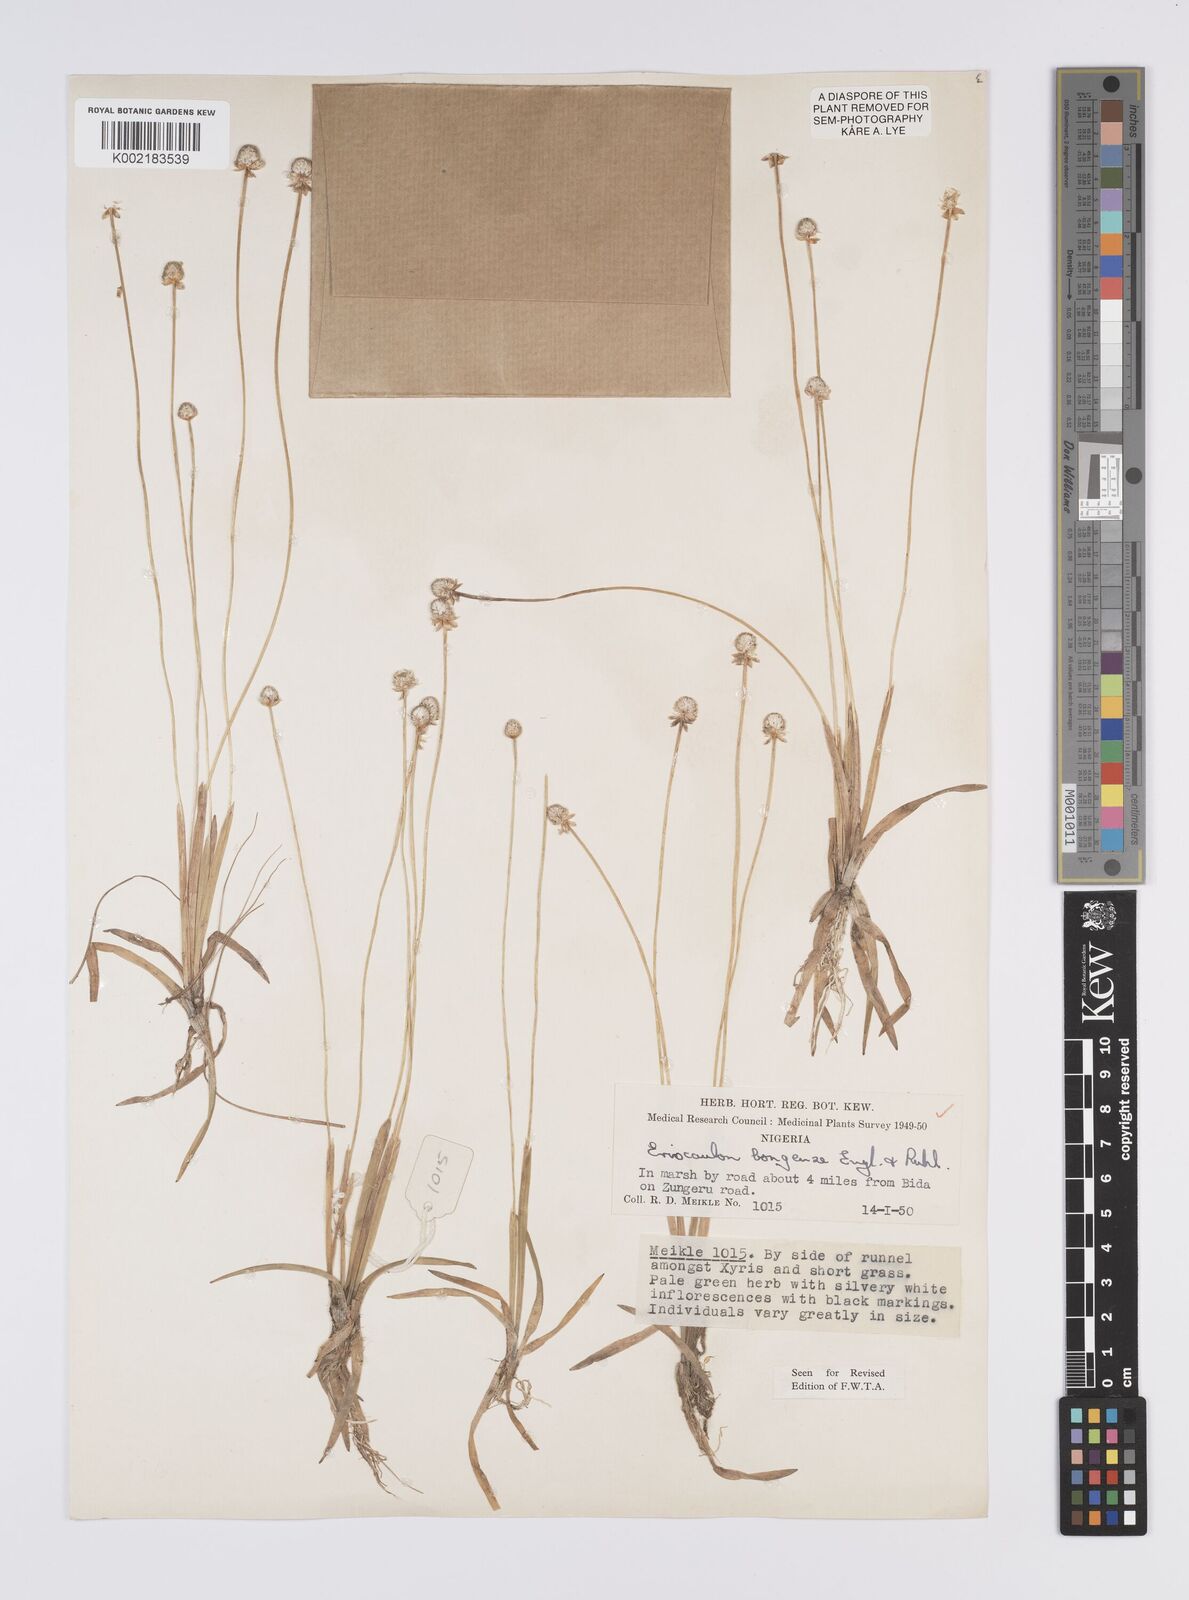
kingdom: Plantae
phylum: Tracheophyta
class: Liliopsida
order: Poales
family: Eriocaulaceae
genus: Eriocaulon
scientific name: Eriocaulon bongense
